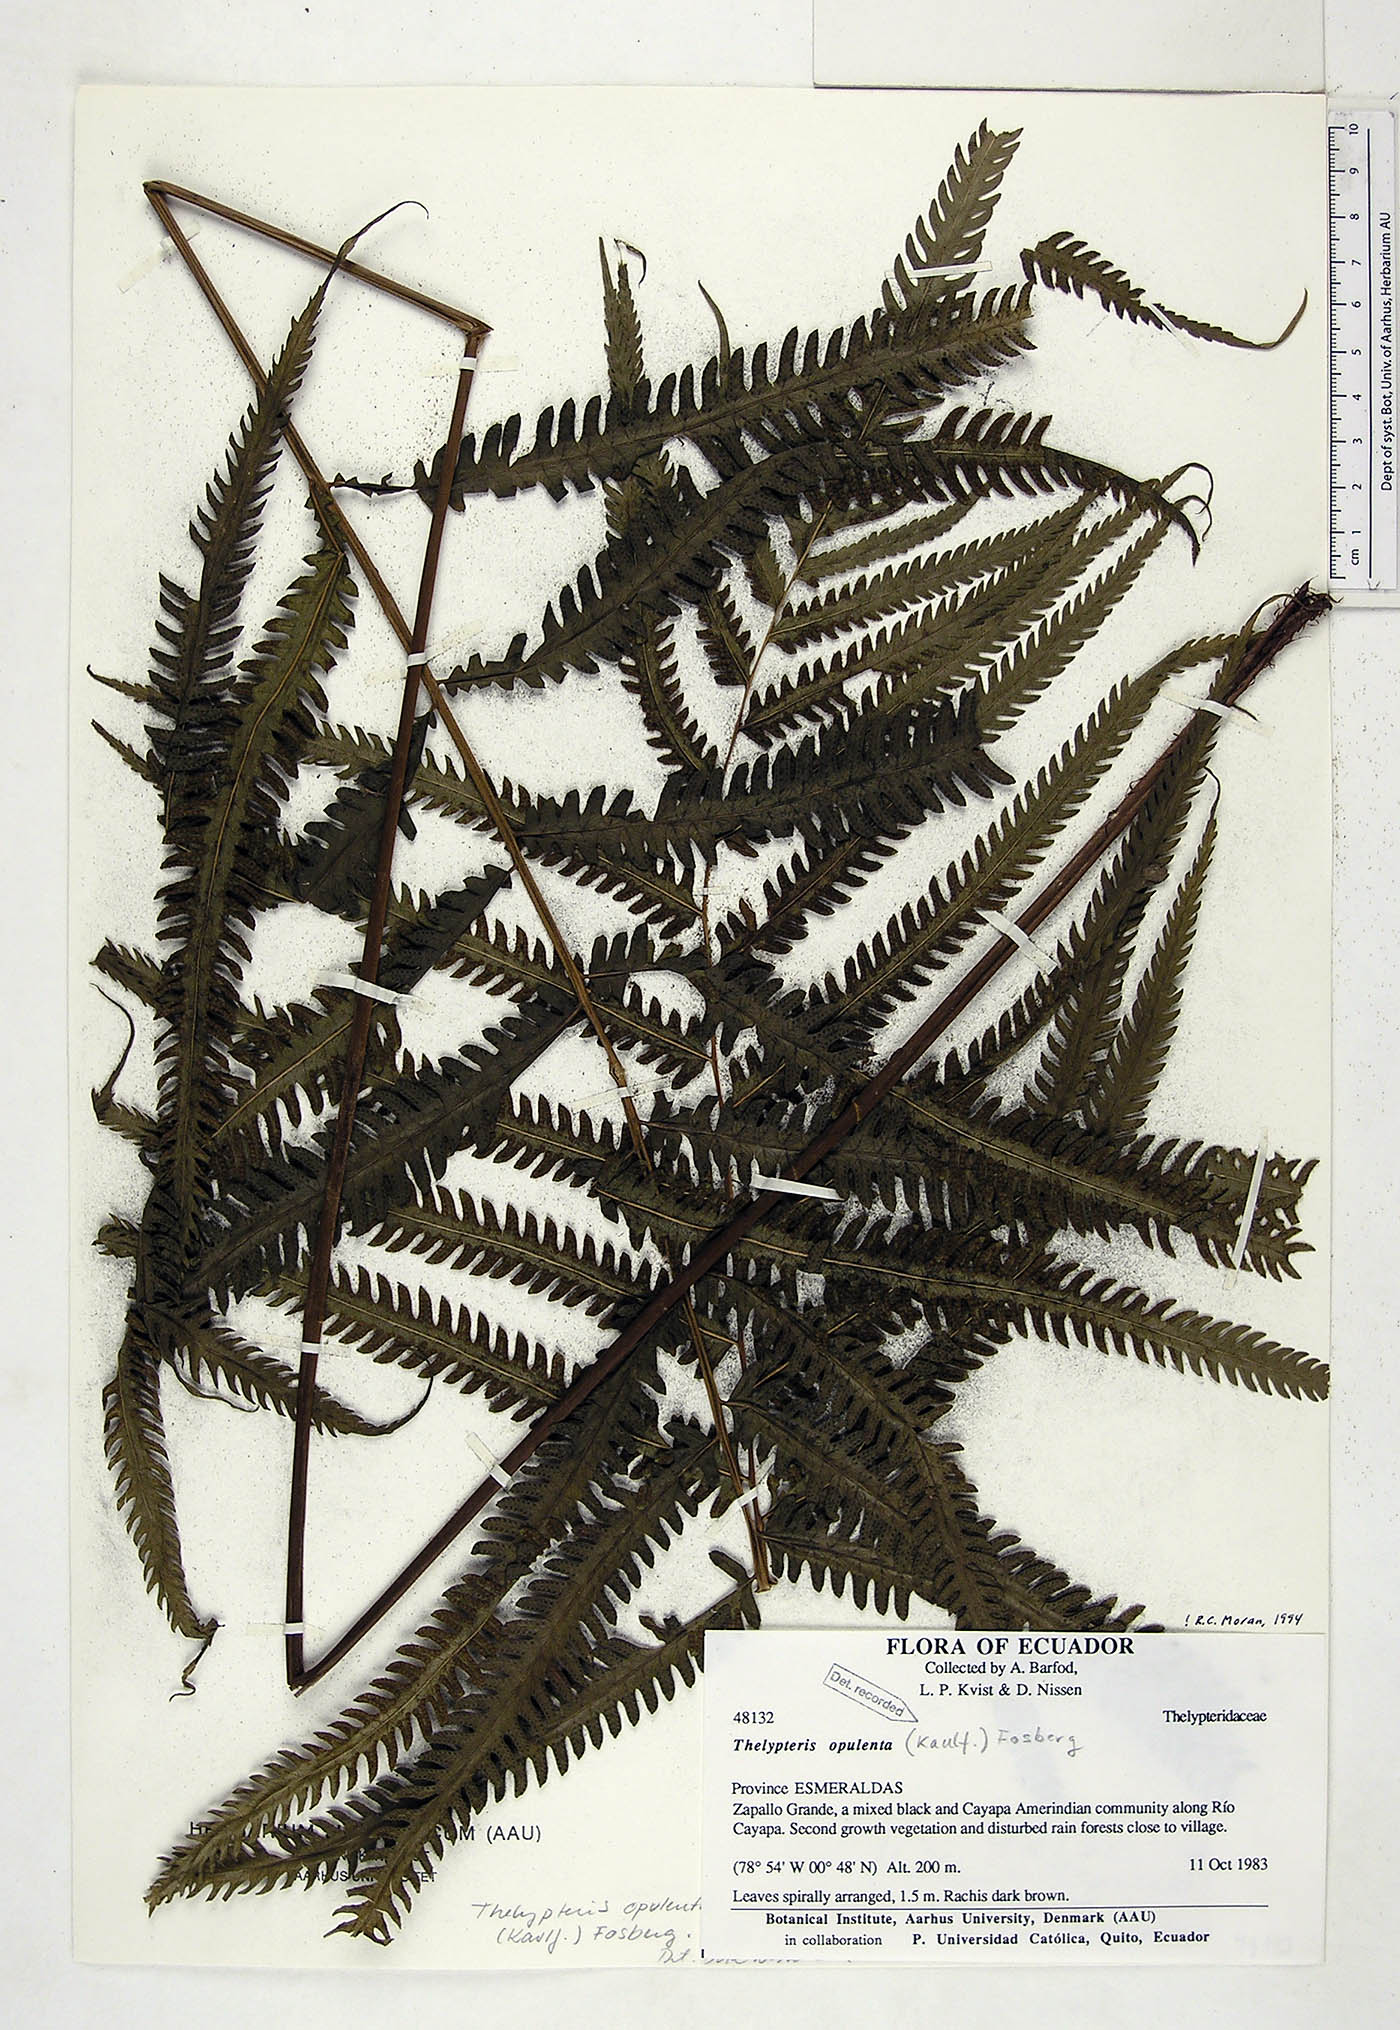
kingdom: Plantae
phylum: Tracheophyta
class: Polypodiopsida
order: Polypodiales
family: Thelypteridaceae
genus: Amblovenatum
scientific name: Amblovenatum opulentum
